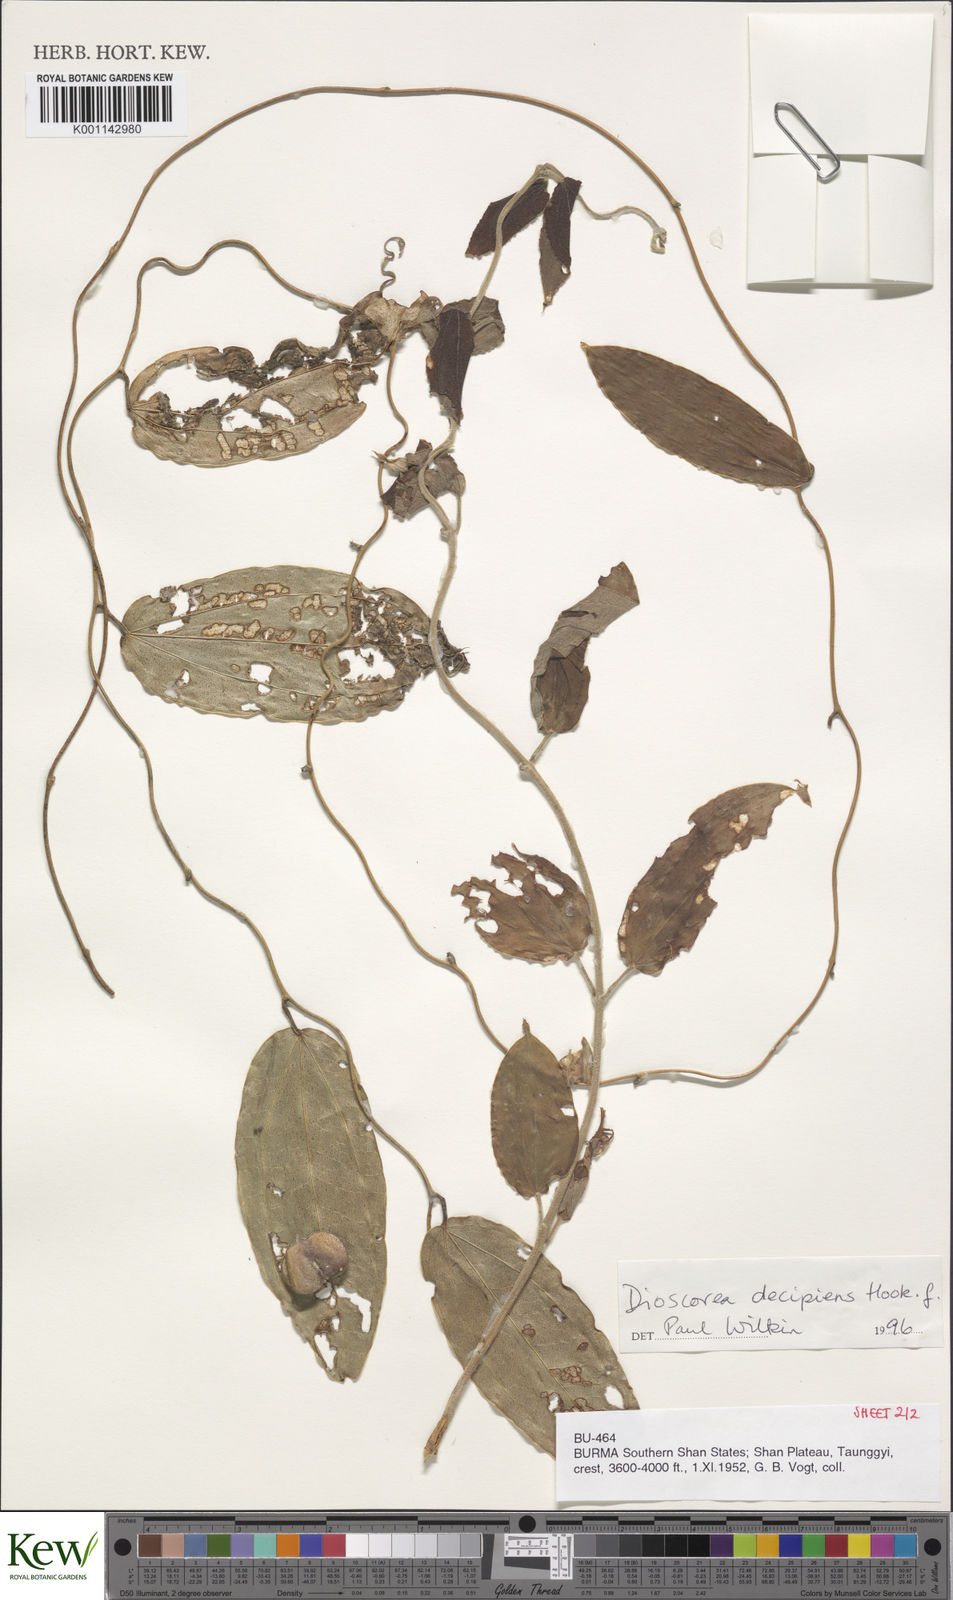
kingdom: Plantae
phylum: Tracheophyta
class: Liliopsida
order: Dioscoreales
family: Dioscoreaceae
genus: Dioscorea
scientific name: Dioscorea decipiens
